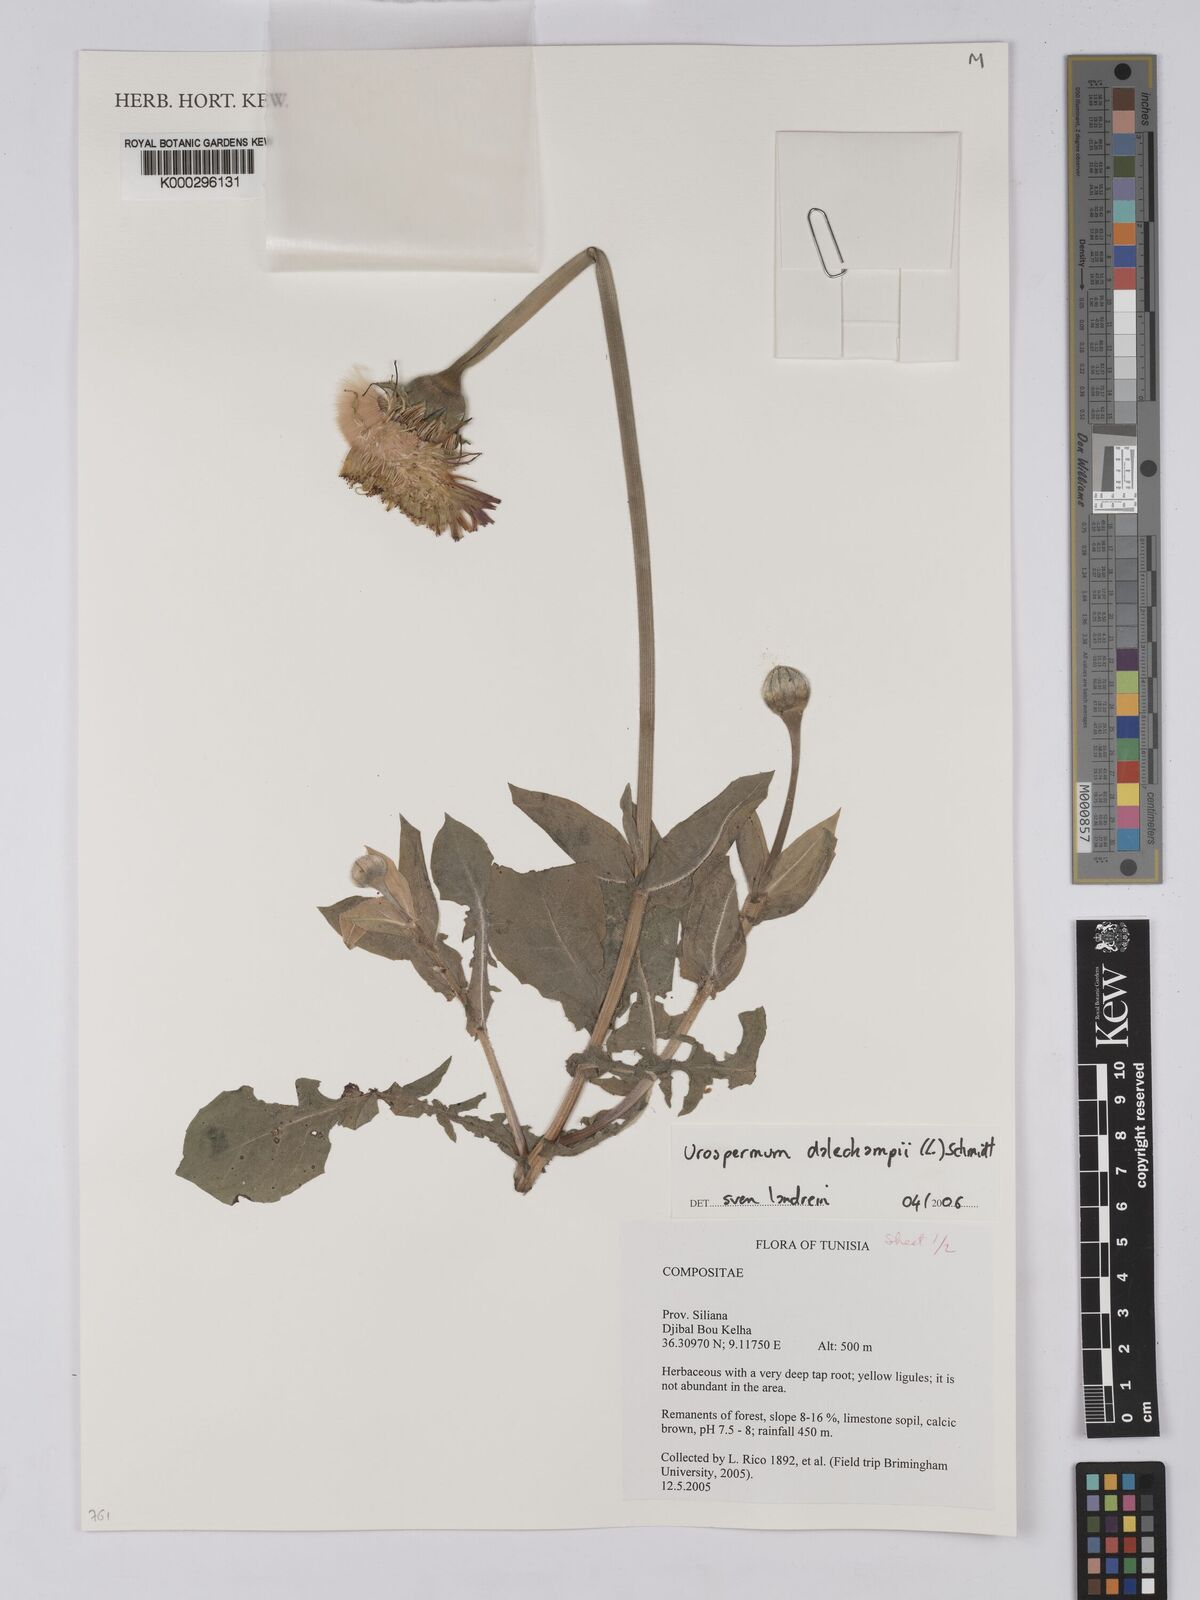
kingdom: Plantae
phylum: Tracheophyta
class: Magnoliopsida
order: Asterales
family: Asteraceae
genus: Urospermum
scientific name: Urospermum
